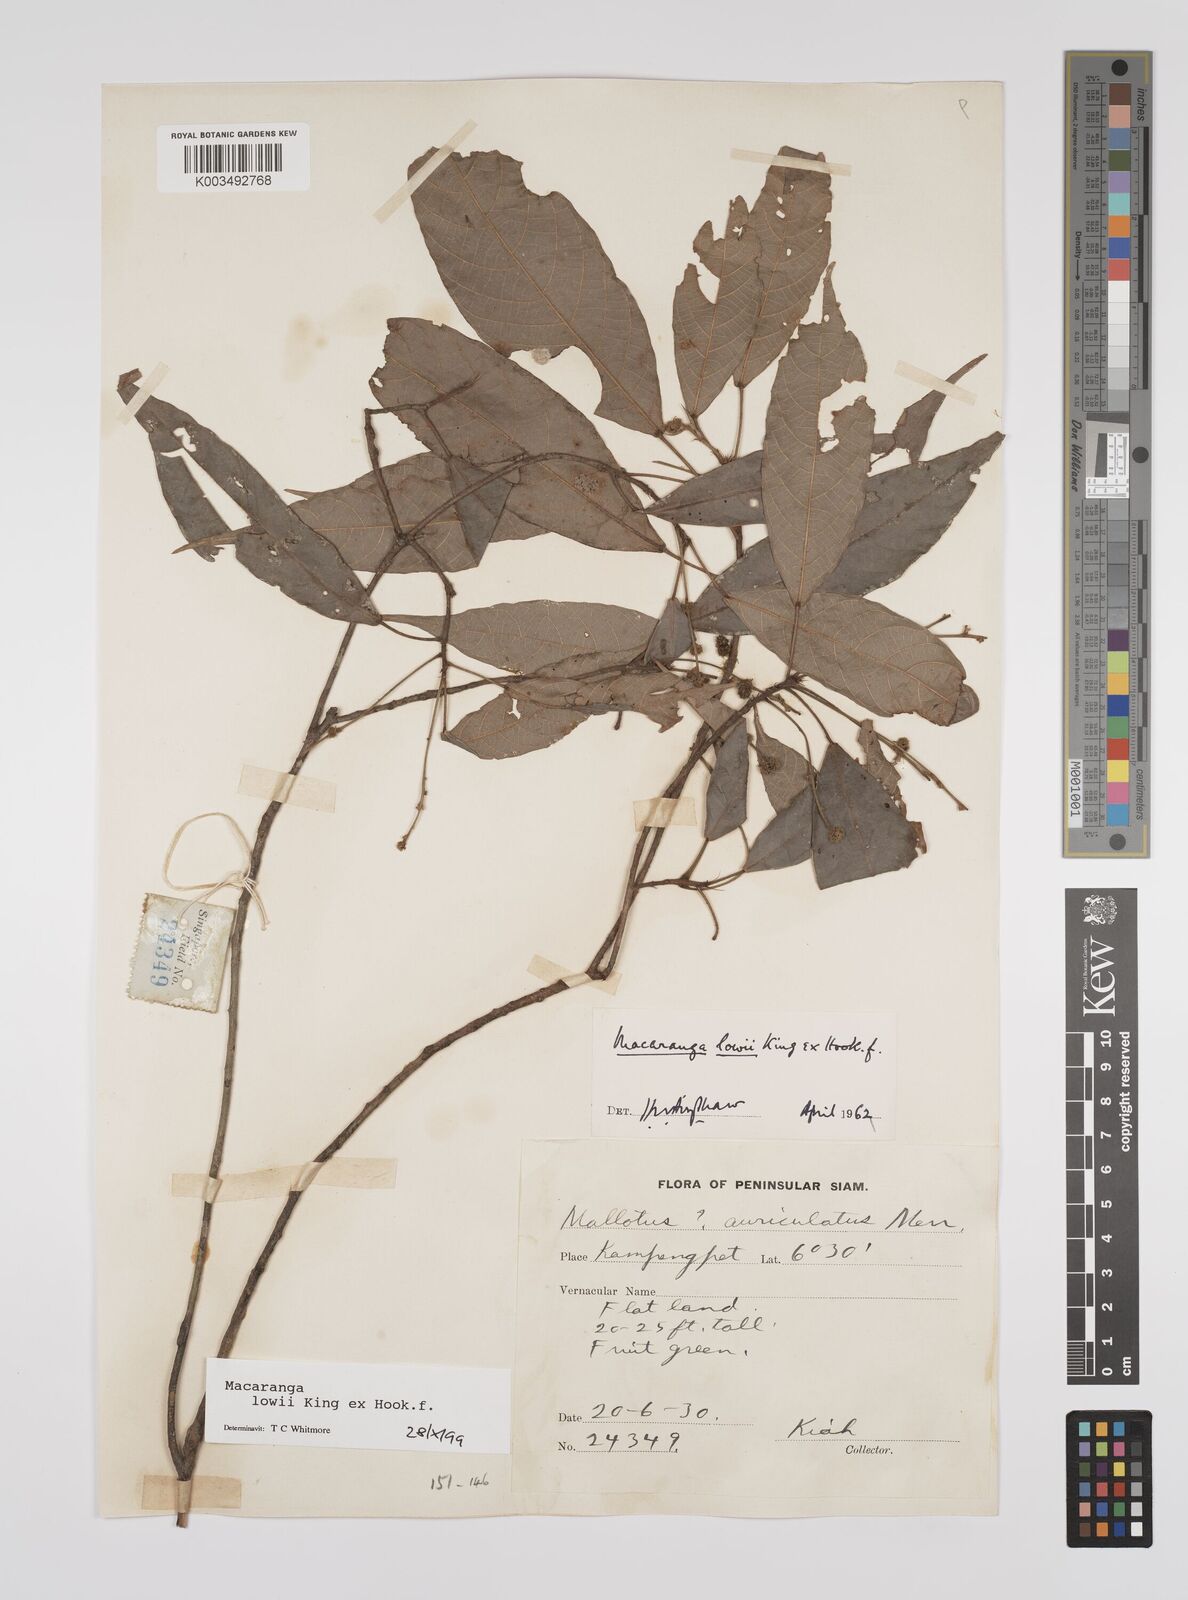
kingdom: Plantae
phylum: Tracheophyta
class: Magnoliopsida
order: Malpighiales
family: Euphorbiaceae
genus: Macaranga
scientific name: Macaranga lowii
